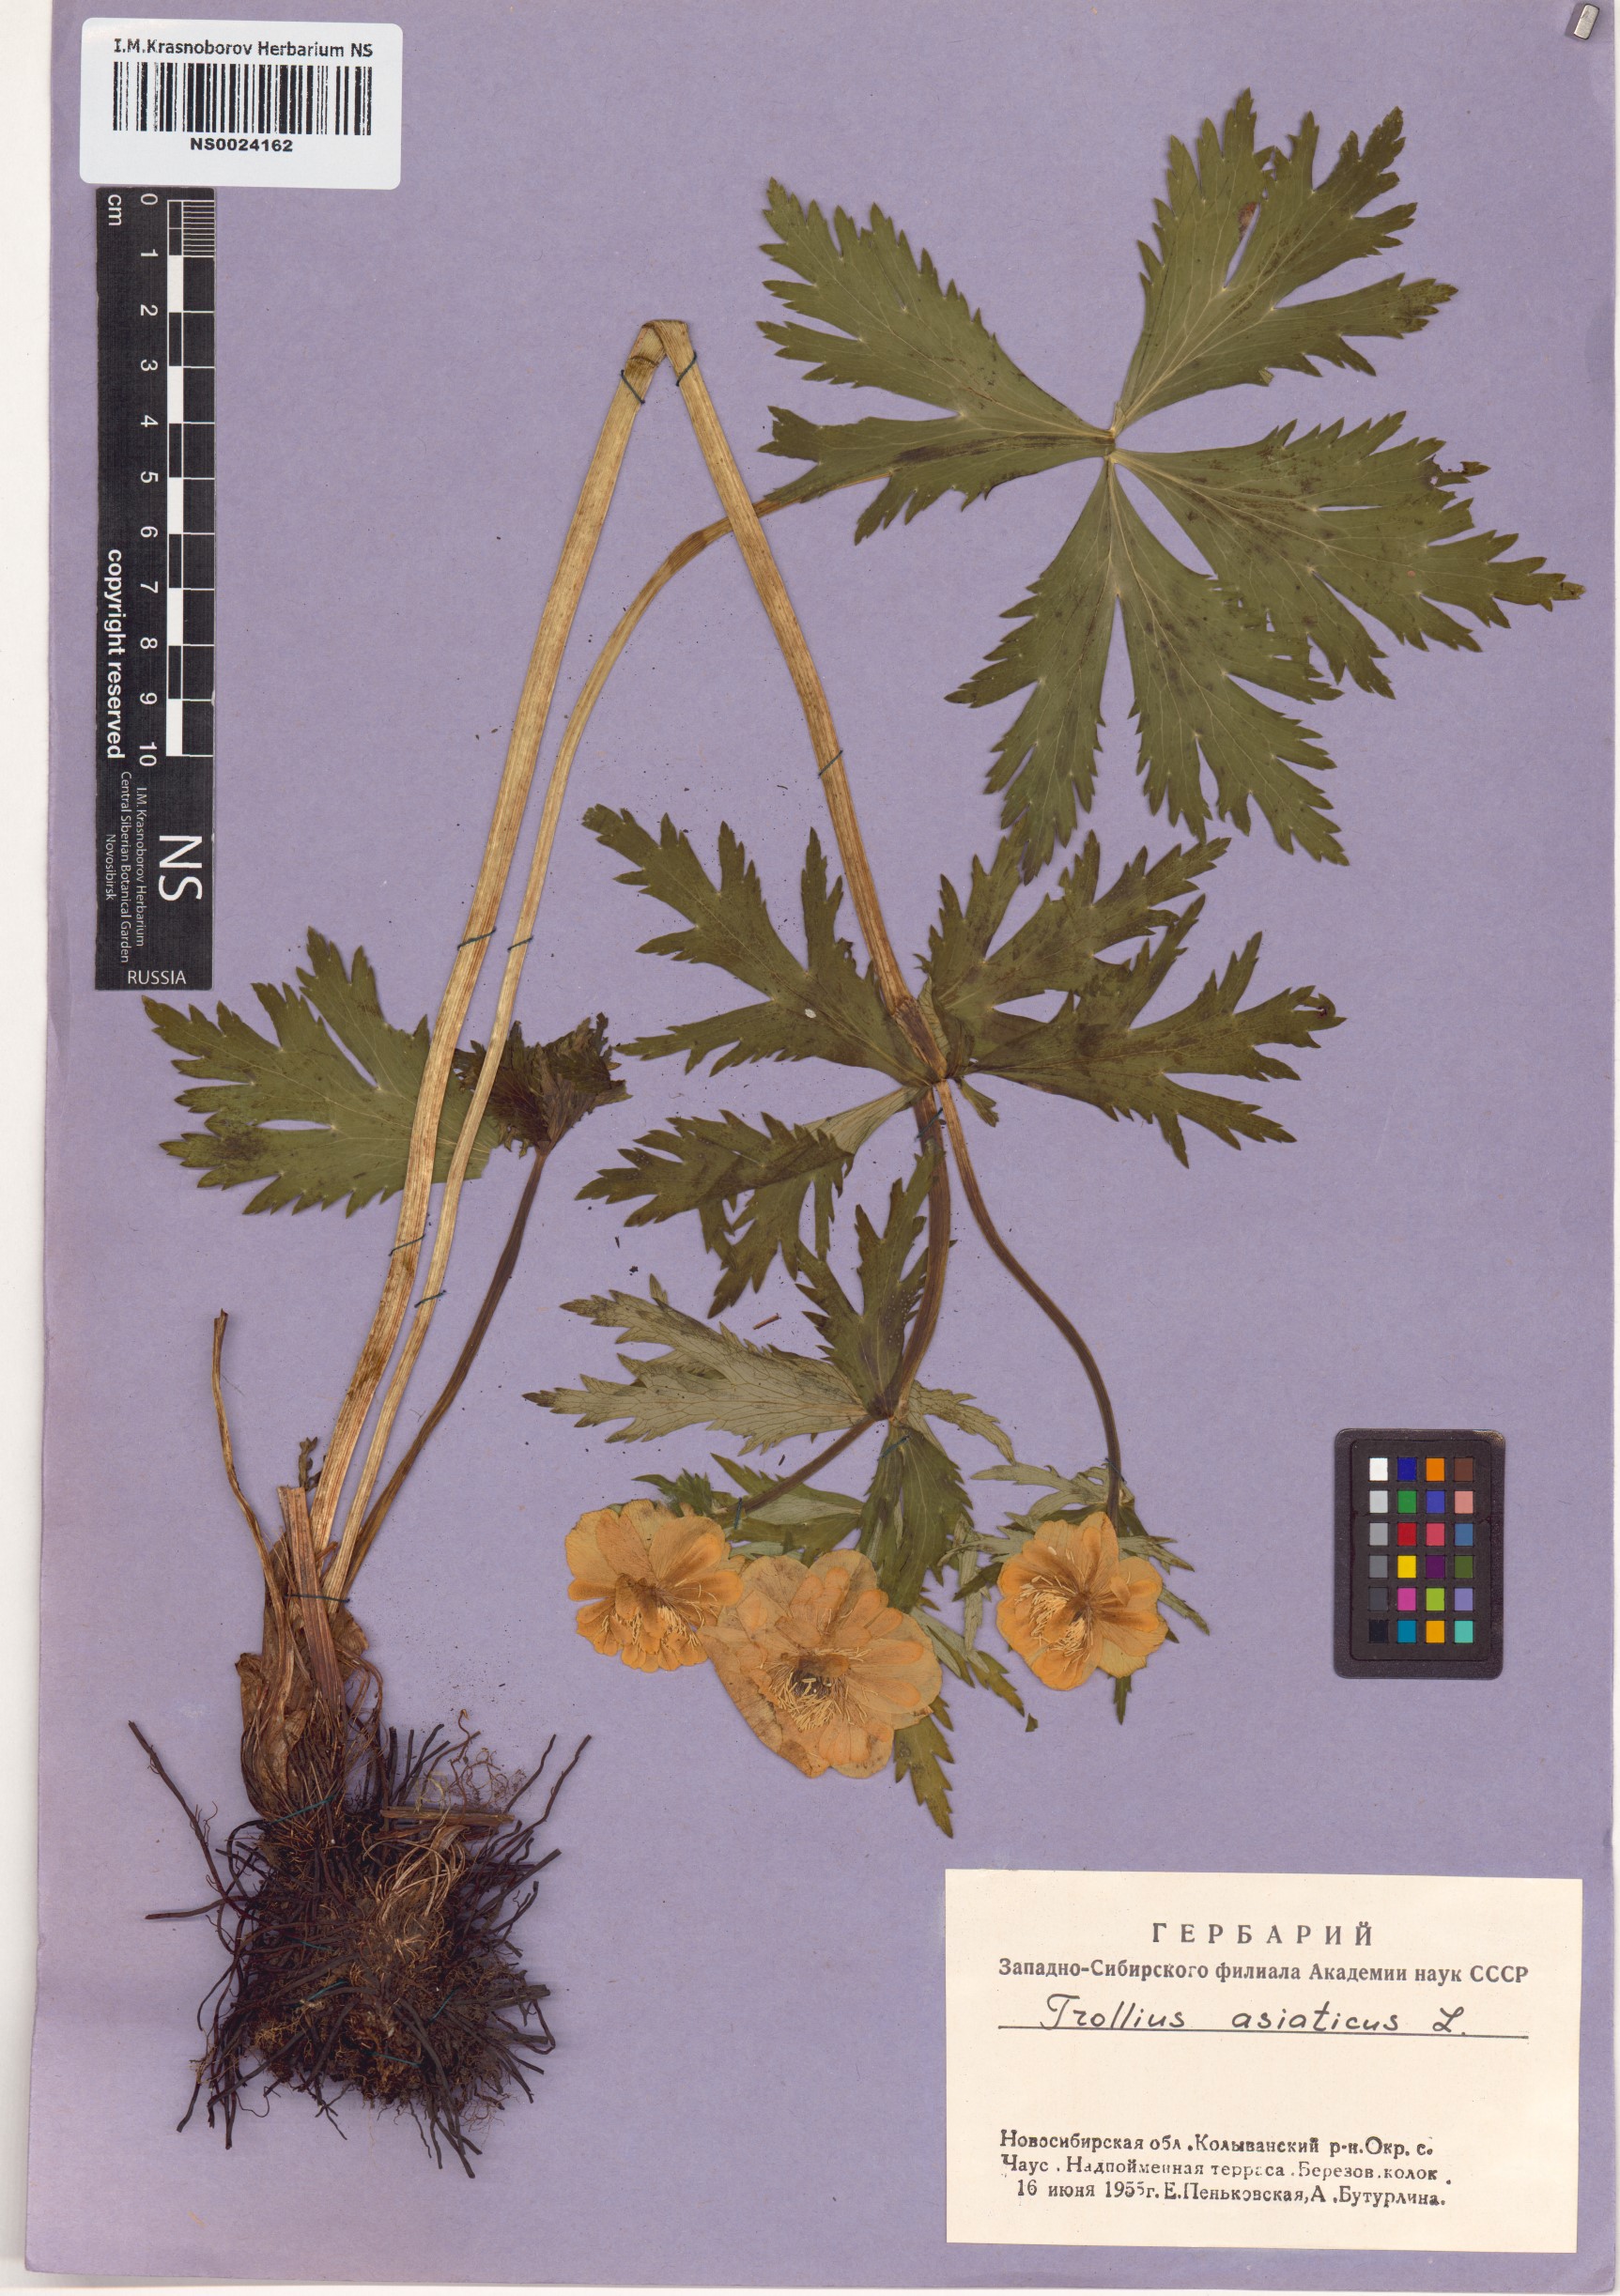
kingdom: Plantae
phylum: Tracheophyta
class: Magnoliopsida
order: Ranunculales
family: Ranunculaceae
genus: Trollius
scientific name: Trollius asiaticus
